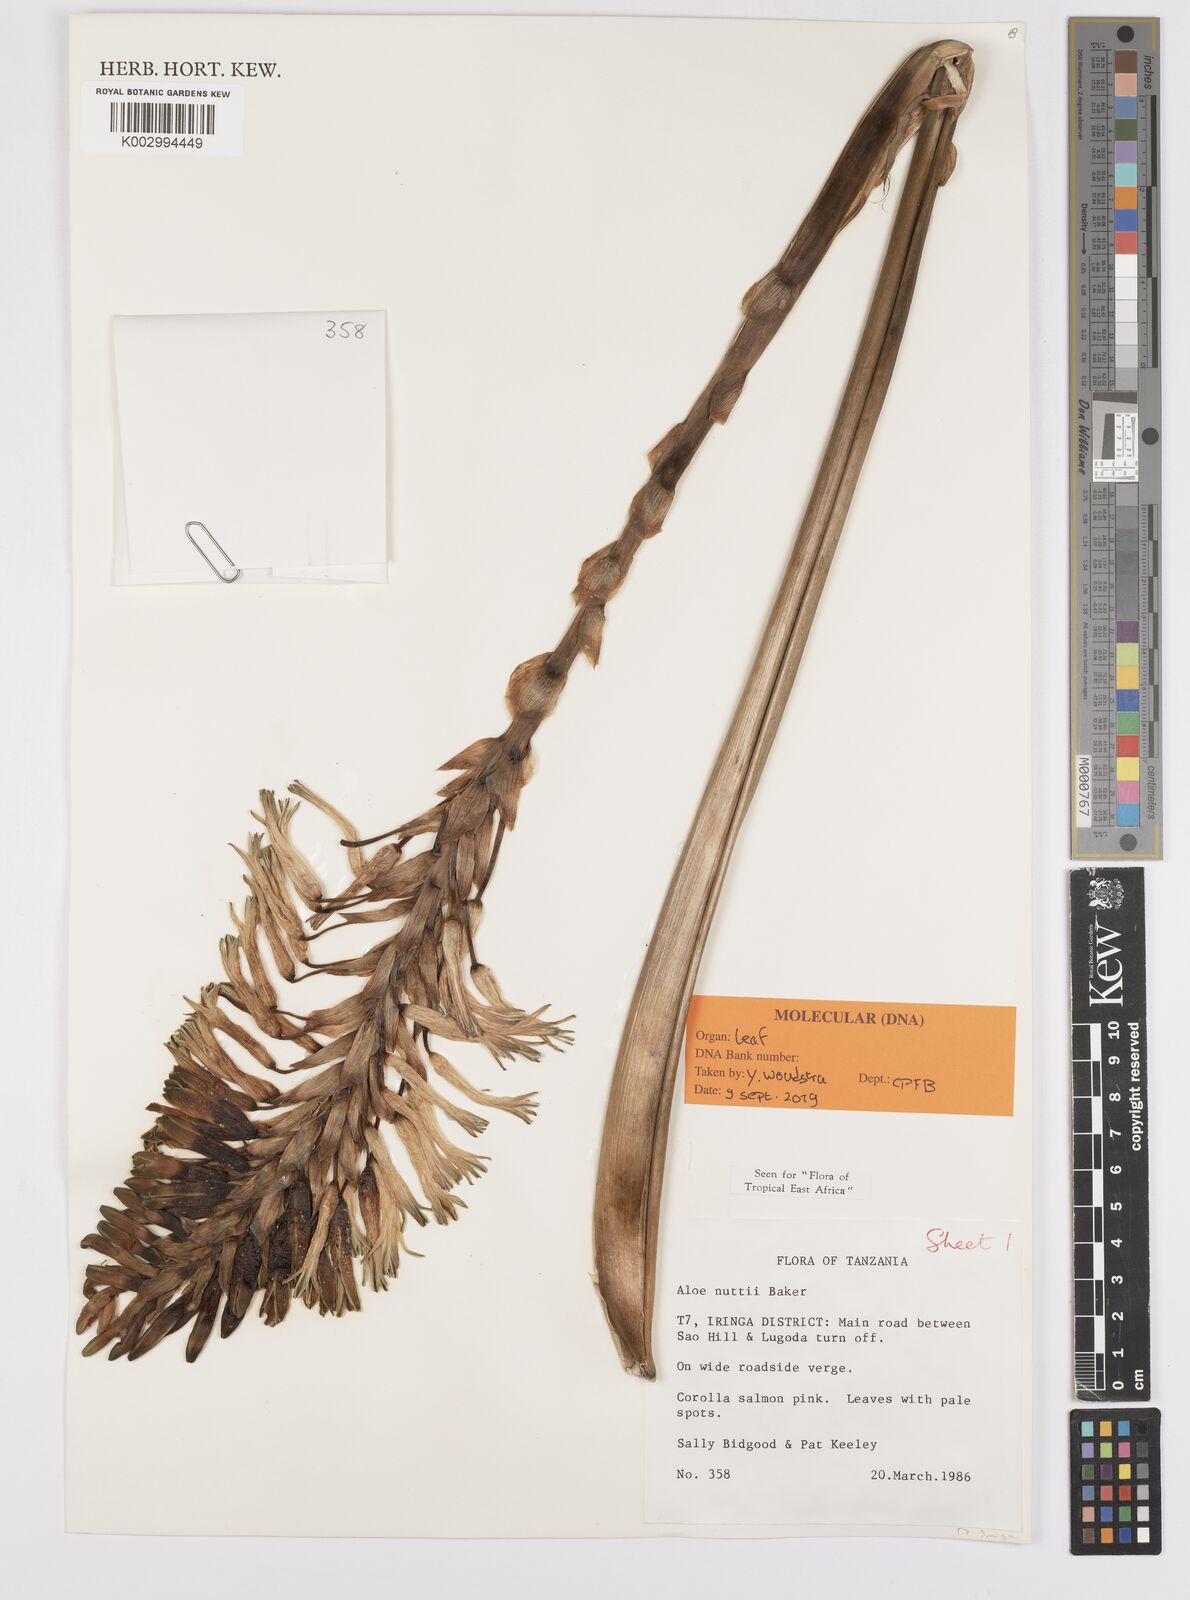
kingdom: Plantae
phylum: Tracheophyta
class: Liliopsida
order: Asparagales
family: Asphodelaceae
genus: Aloe
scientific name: Aloe nuttii
